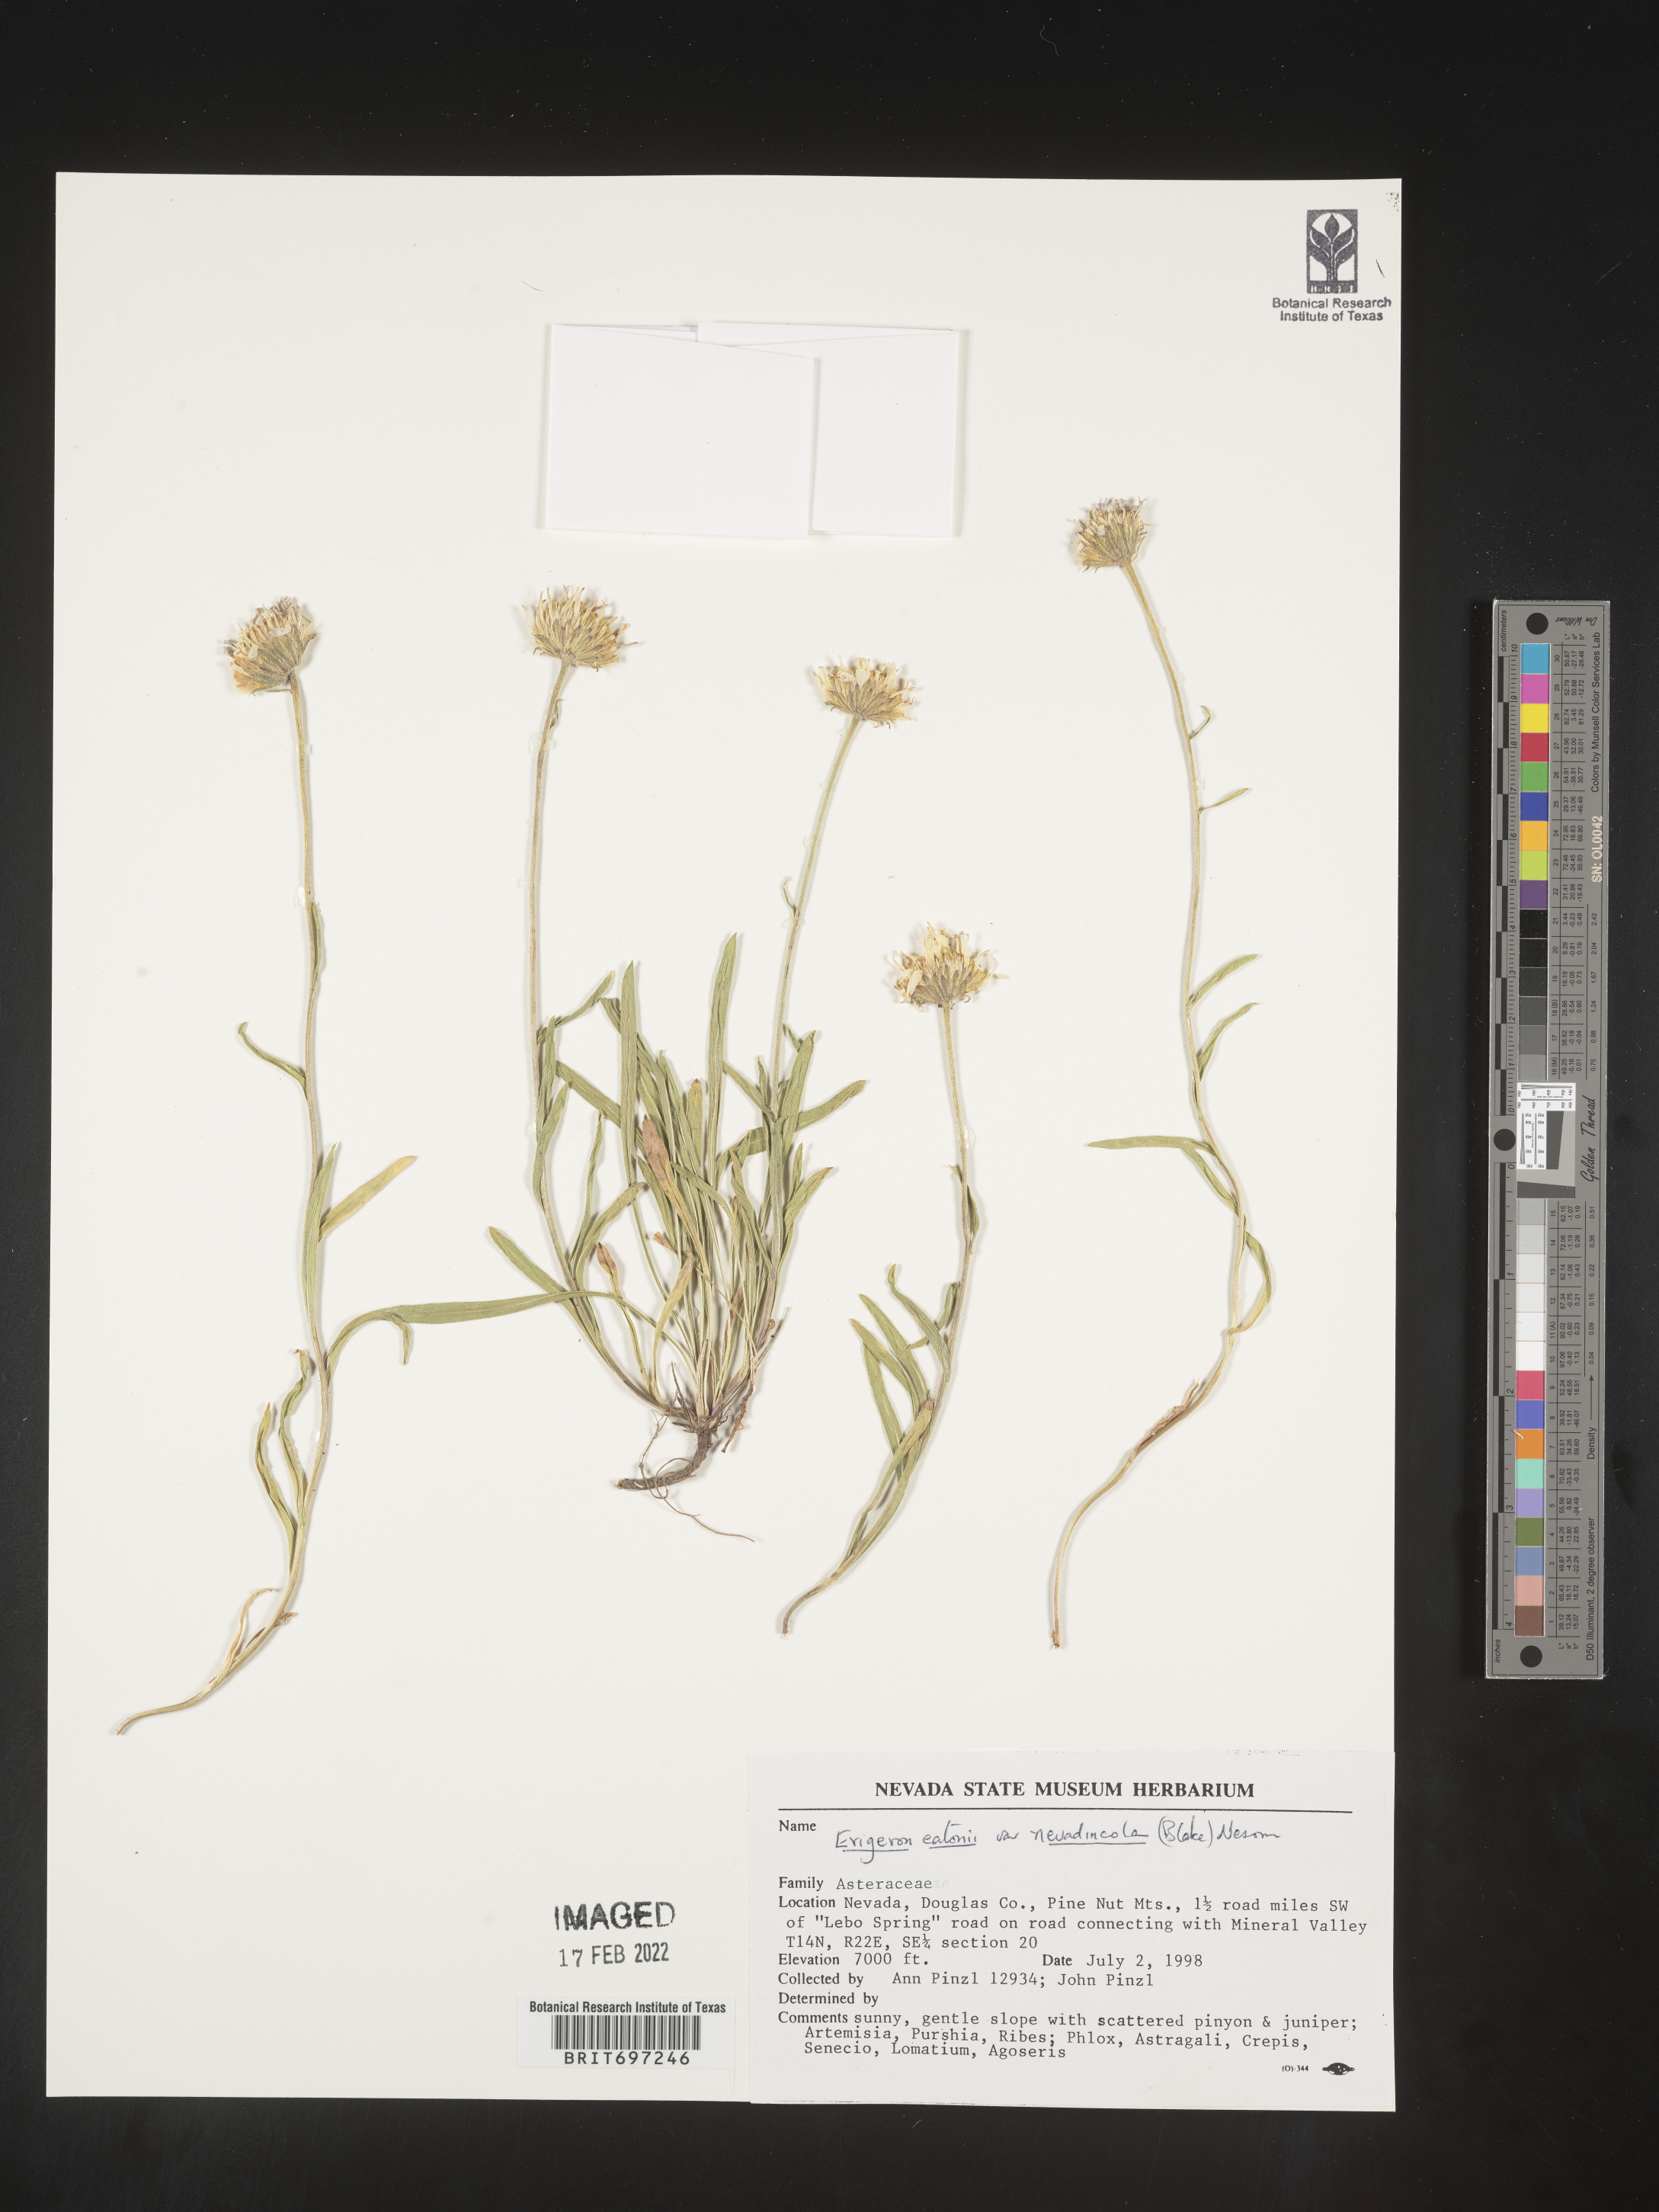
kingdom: Plantae
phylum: Tracheophyta
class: Magnoliopsida
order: Asterales
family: Asteraceae
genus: Erigeron
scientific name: Erigeron eatonii
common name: Eaton's fleabane
